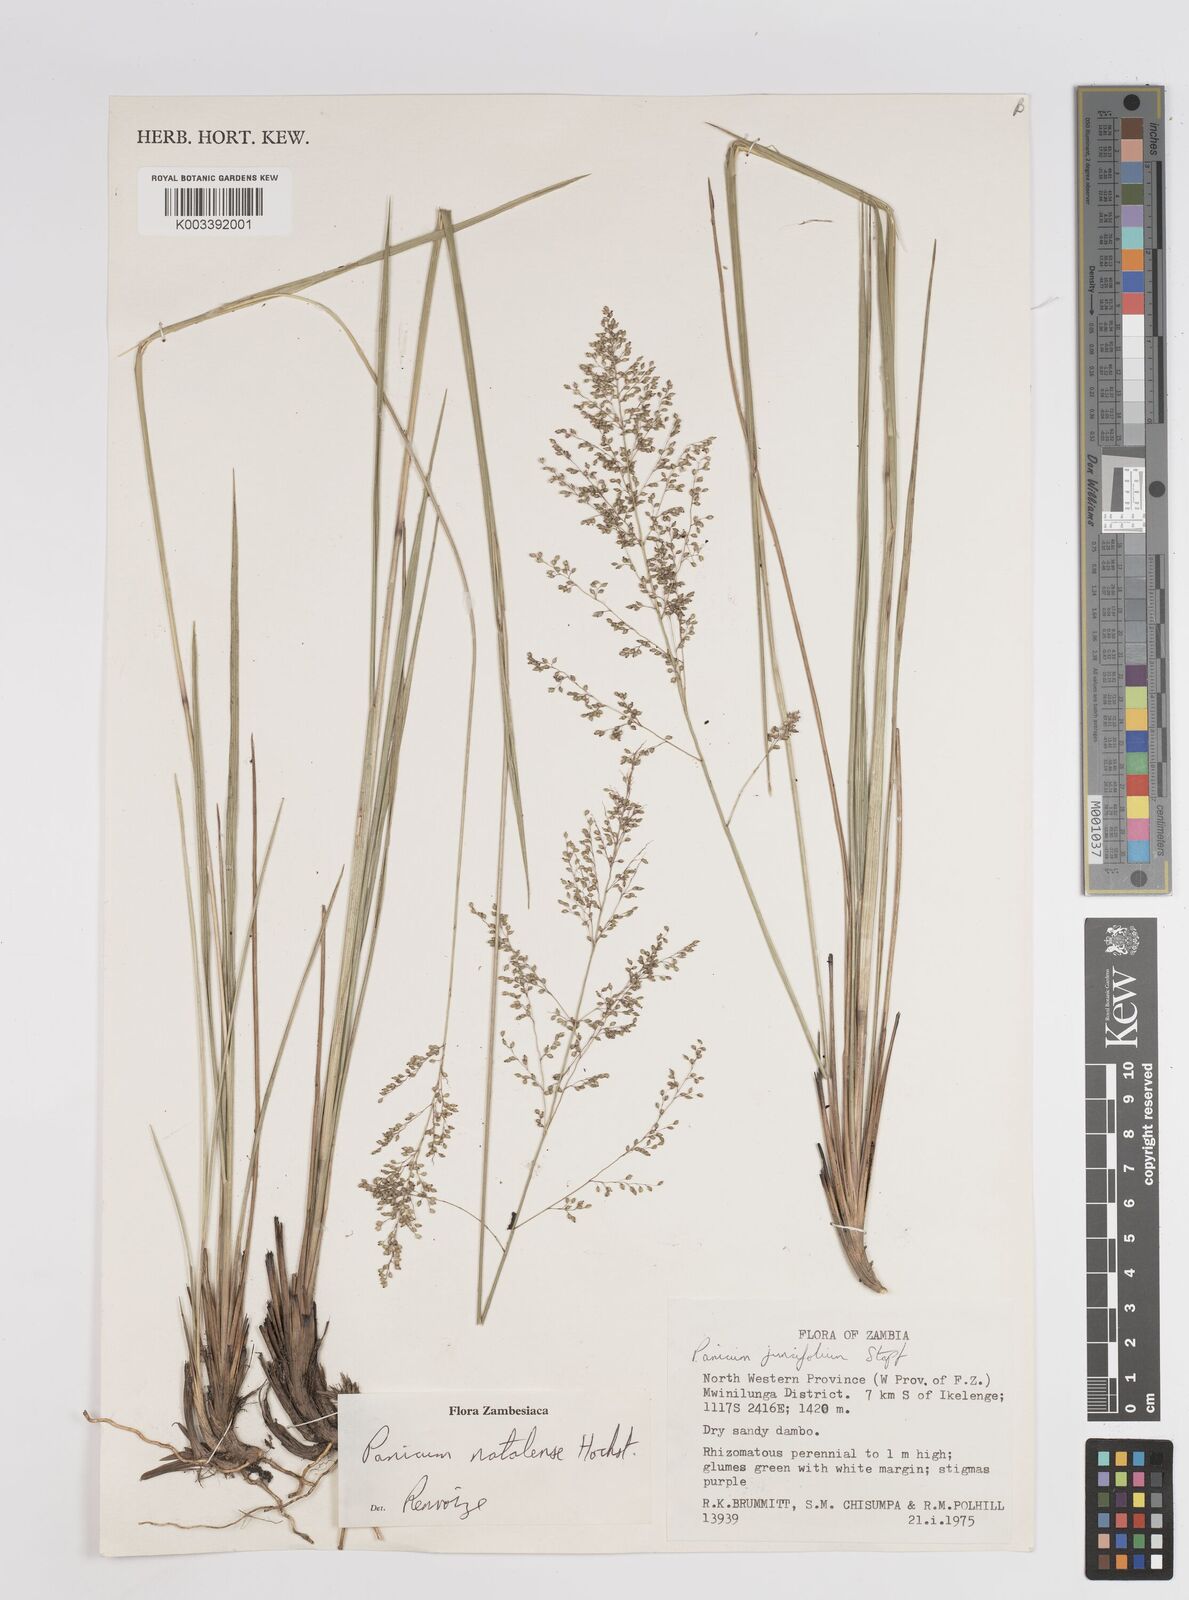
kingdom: Plantae
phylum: Tracheophyta
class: Liliopsida
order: Poales
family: Poaceae
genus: Trichanthecium
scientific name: Trichanthecium natalense
